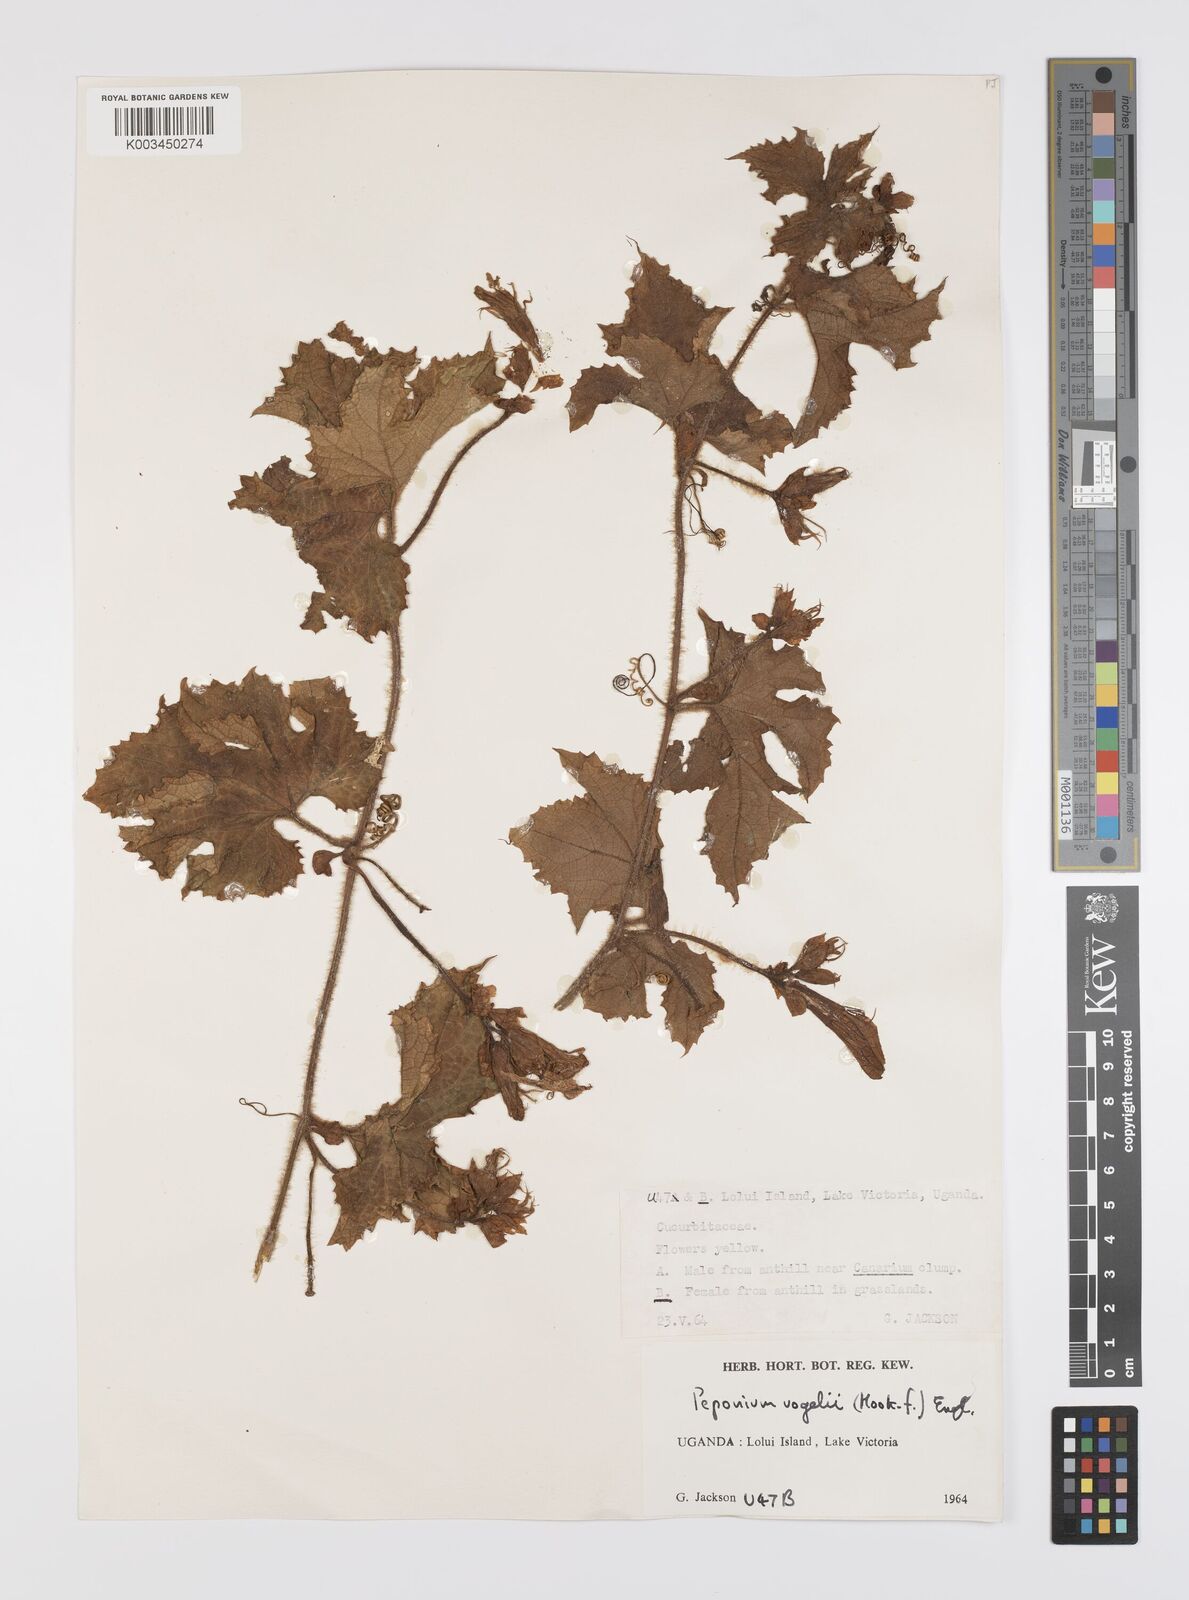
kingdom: Plantae
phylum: Tracheophyta
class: Magnoliopsida
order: Cucurbitales
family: Cucurbitaceae
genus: Peponium
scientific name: Peponium vogelii
